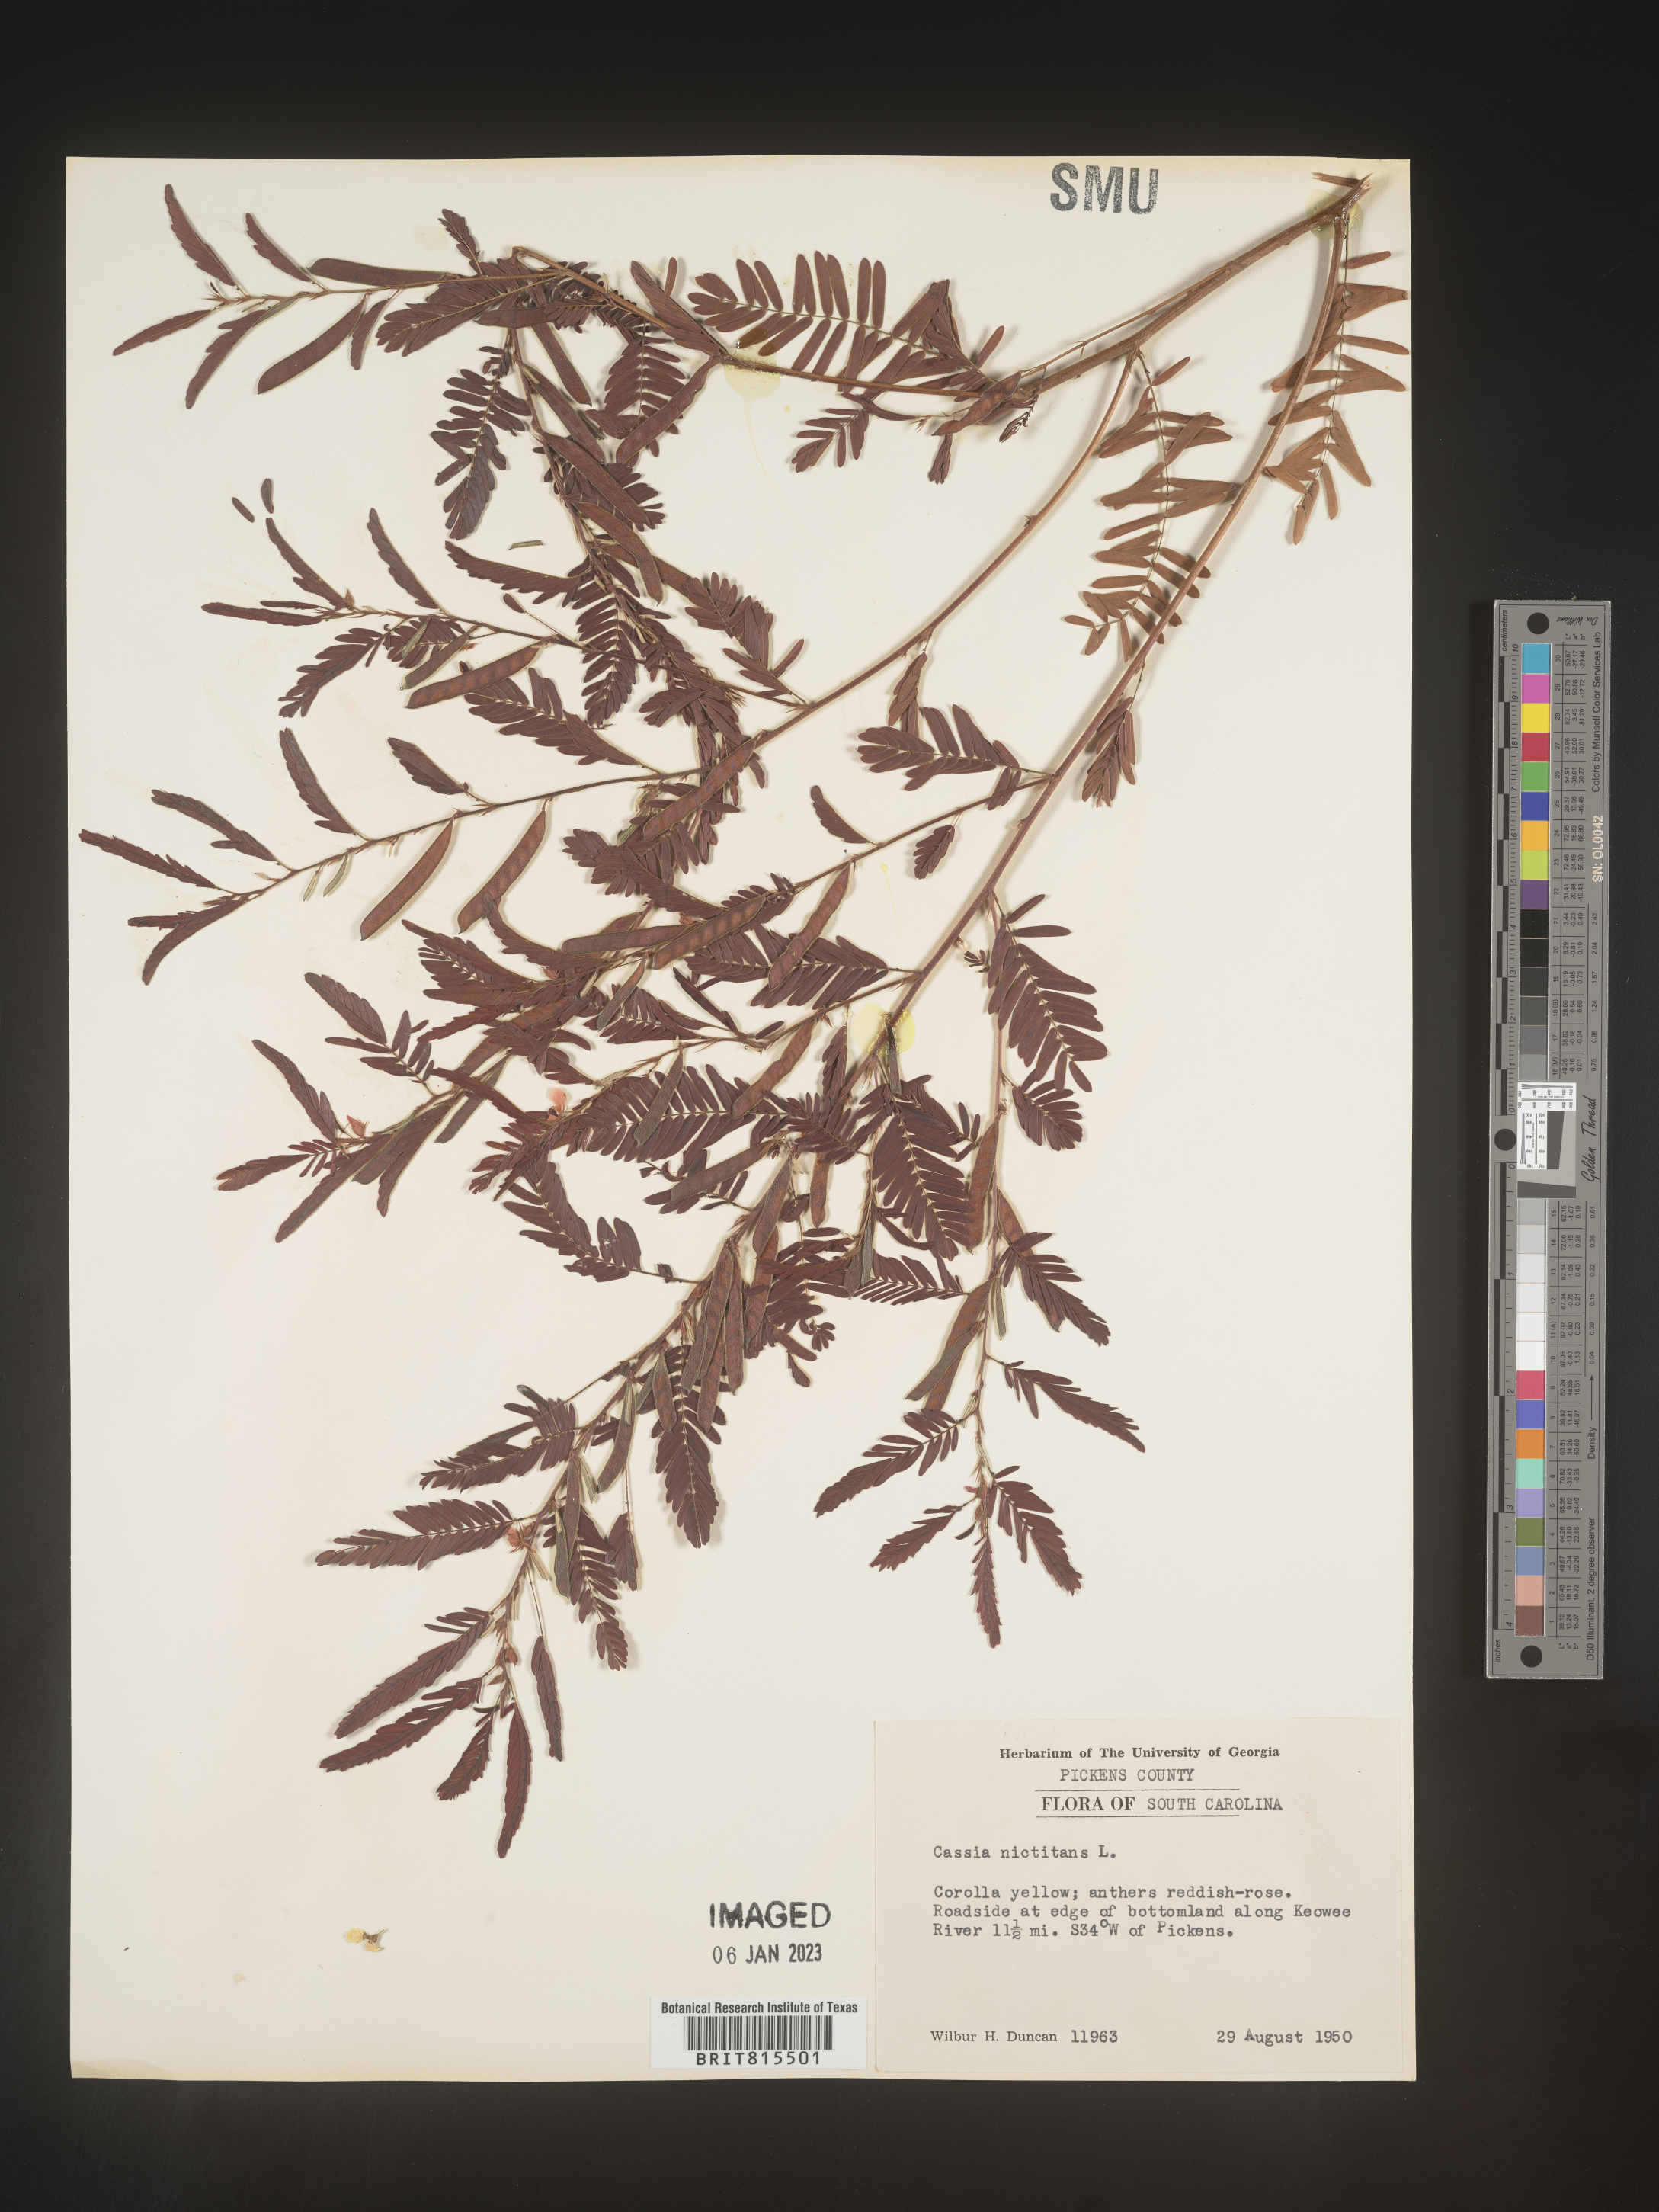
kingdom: Plantae
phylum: Tracheophyta
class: Magnoliopsida
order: Fabales
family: Fabaceae
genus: Chamaecrista
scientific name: Chamaecrista nictitans
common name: Sensitive cassia
